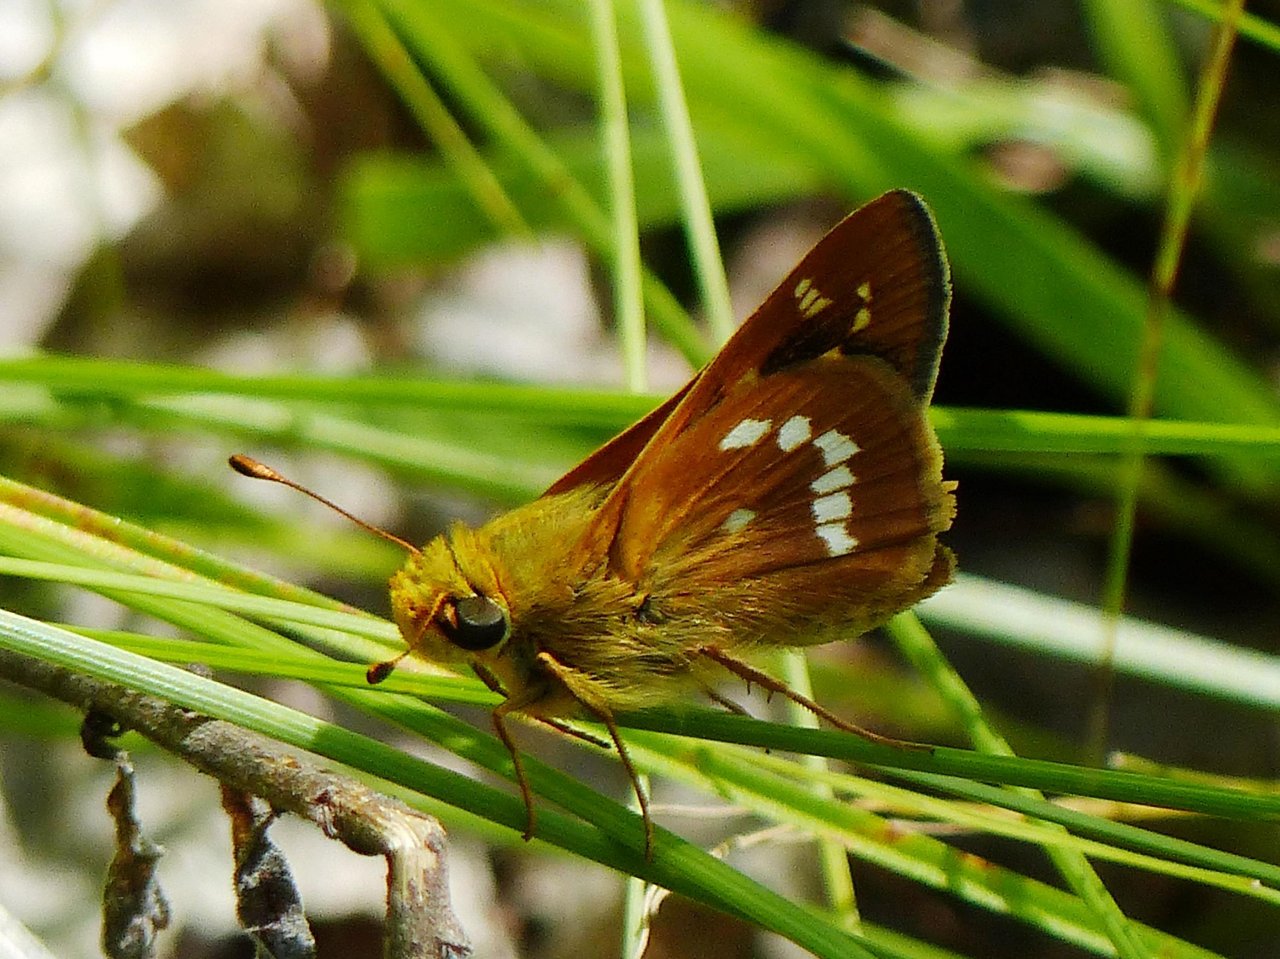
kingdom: Animalia
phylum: Arthropoda
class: Insecta
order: Lepidoptera
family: Hesperiidae
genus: Hesperia
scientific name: Hesperia leonardus
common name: Leonard's Skipper
